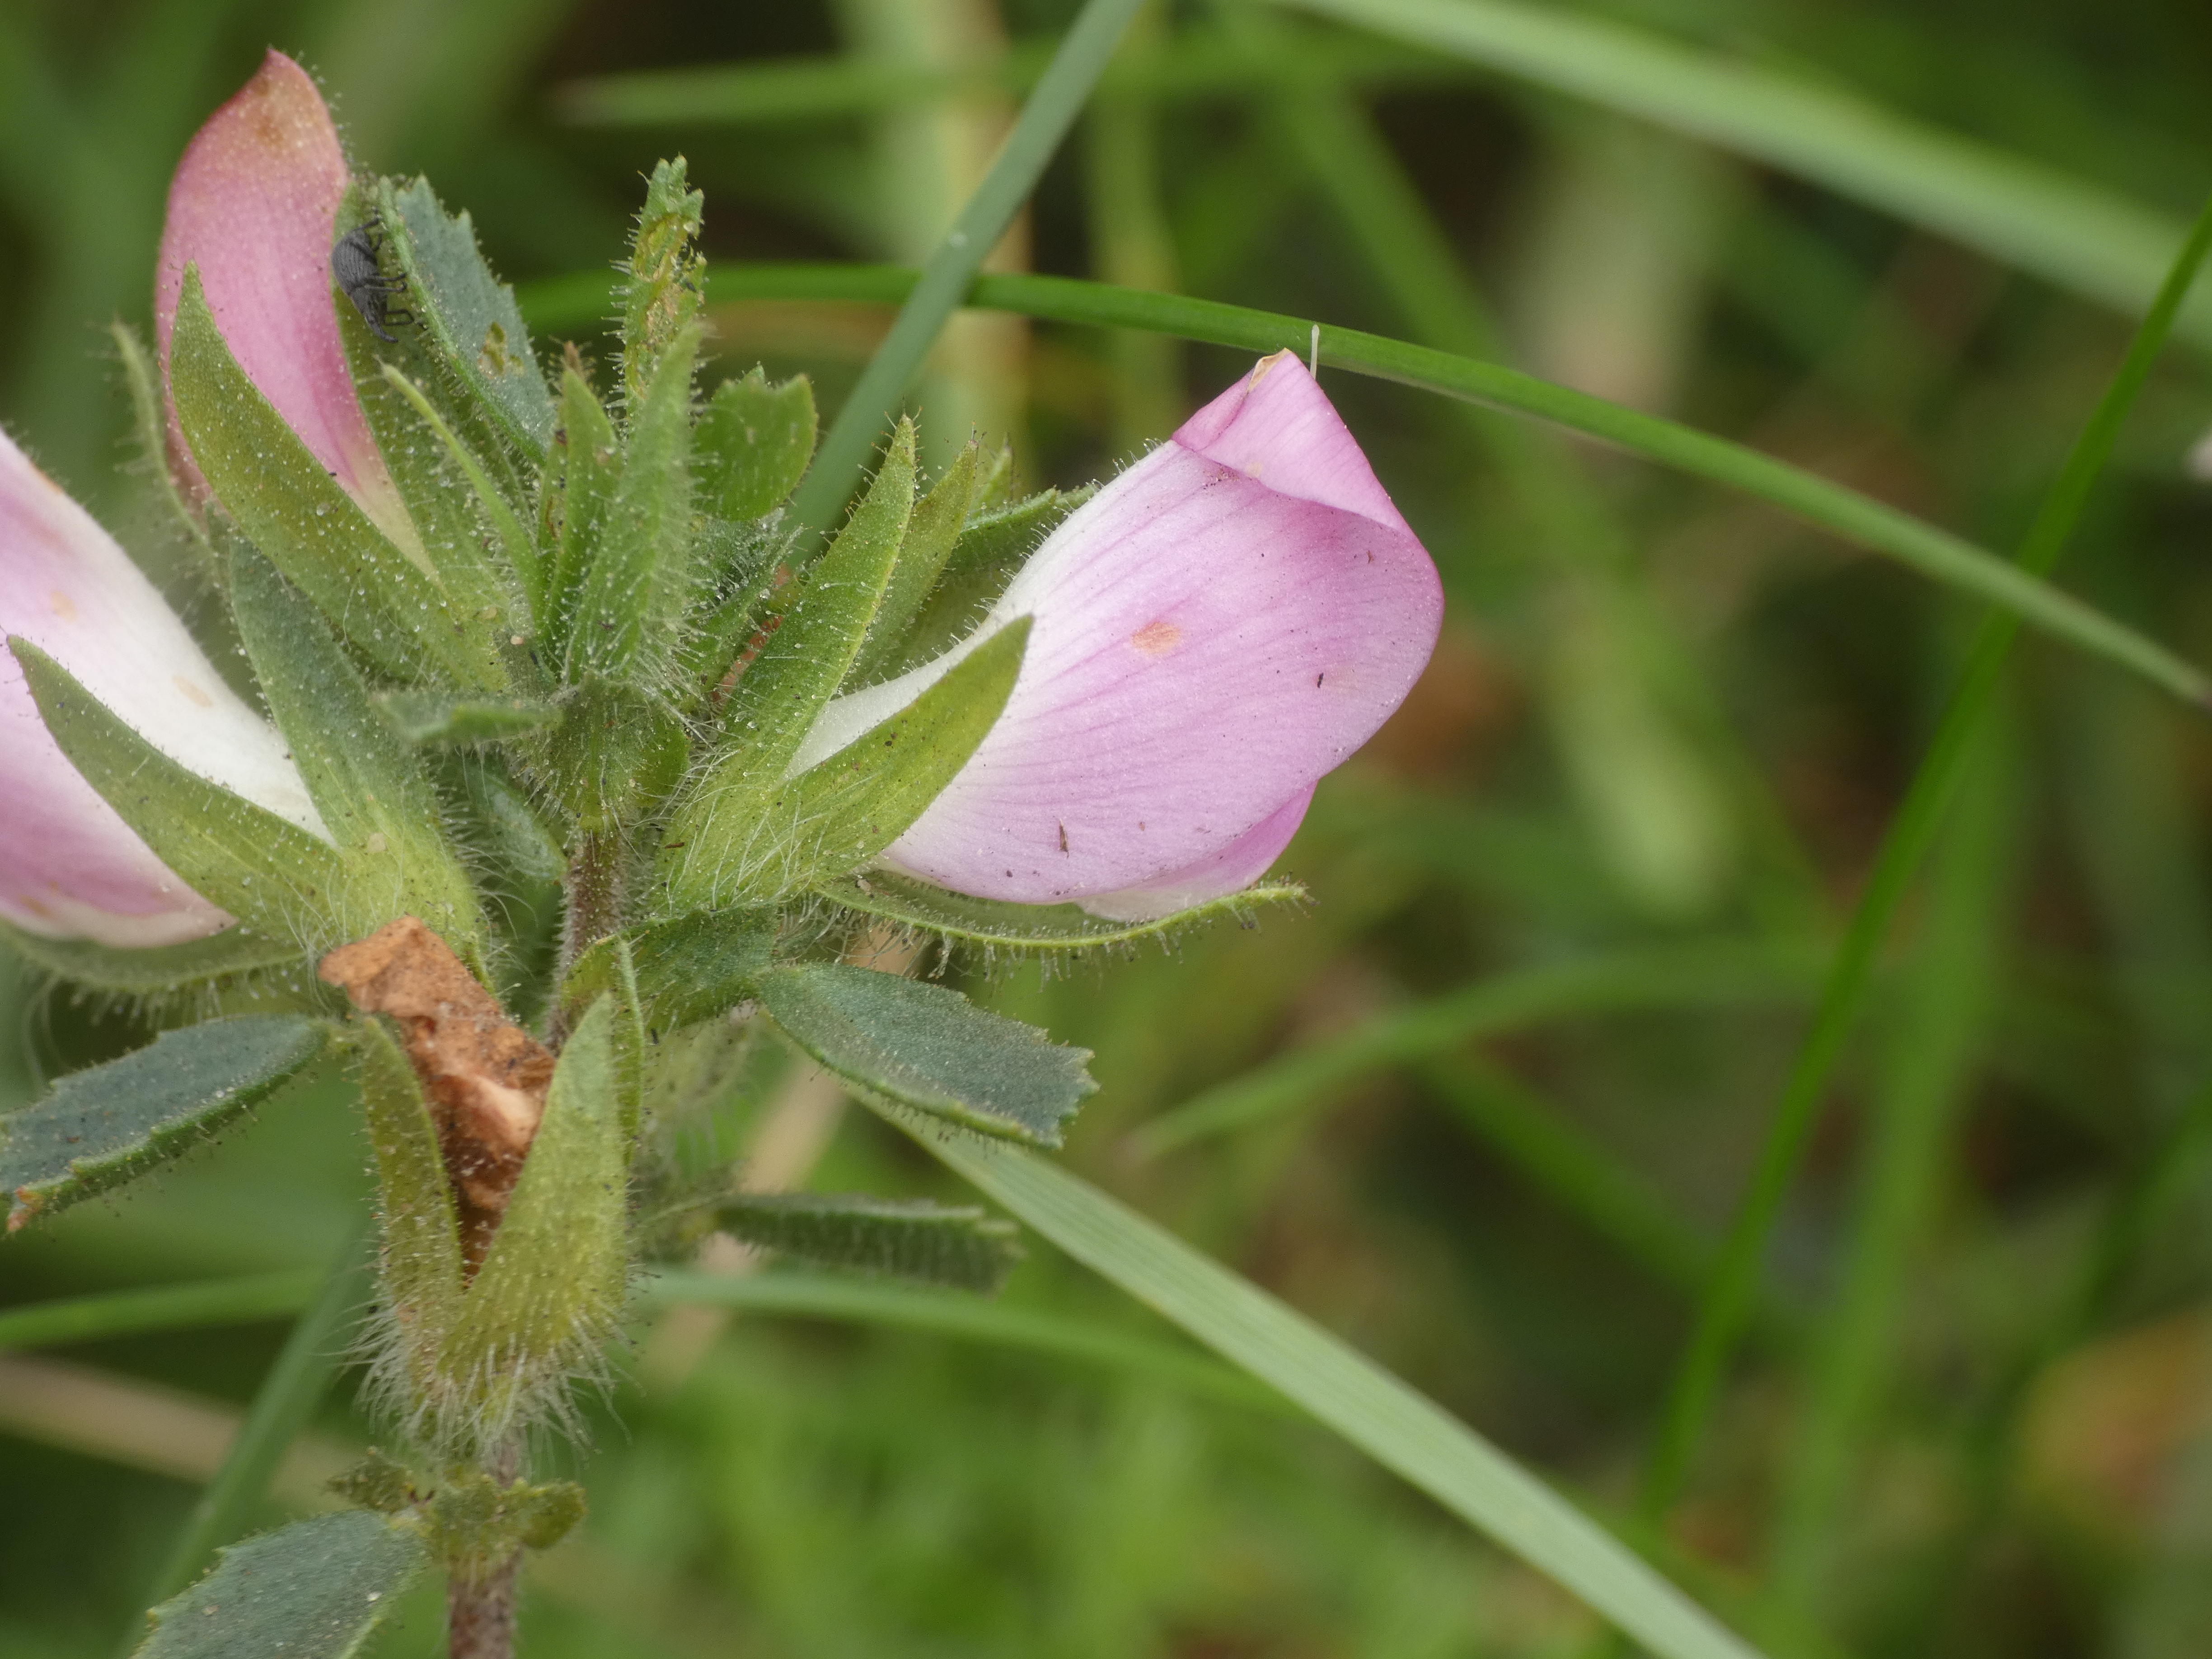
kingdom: Plantae
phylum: Tracheophyta
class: Magnoliopsida
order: Fabales
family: Fabaceae
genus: Ononis
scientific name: Ononis spinosa
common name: Mark-krageklo
